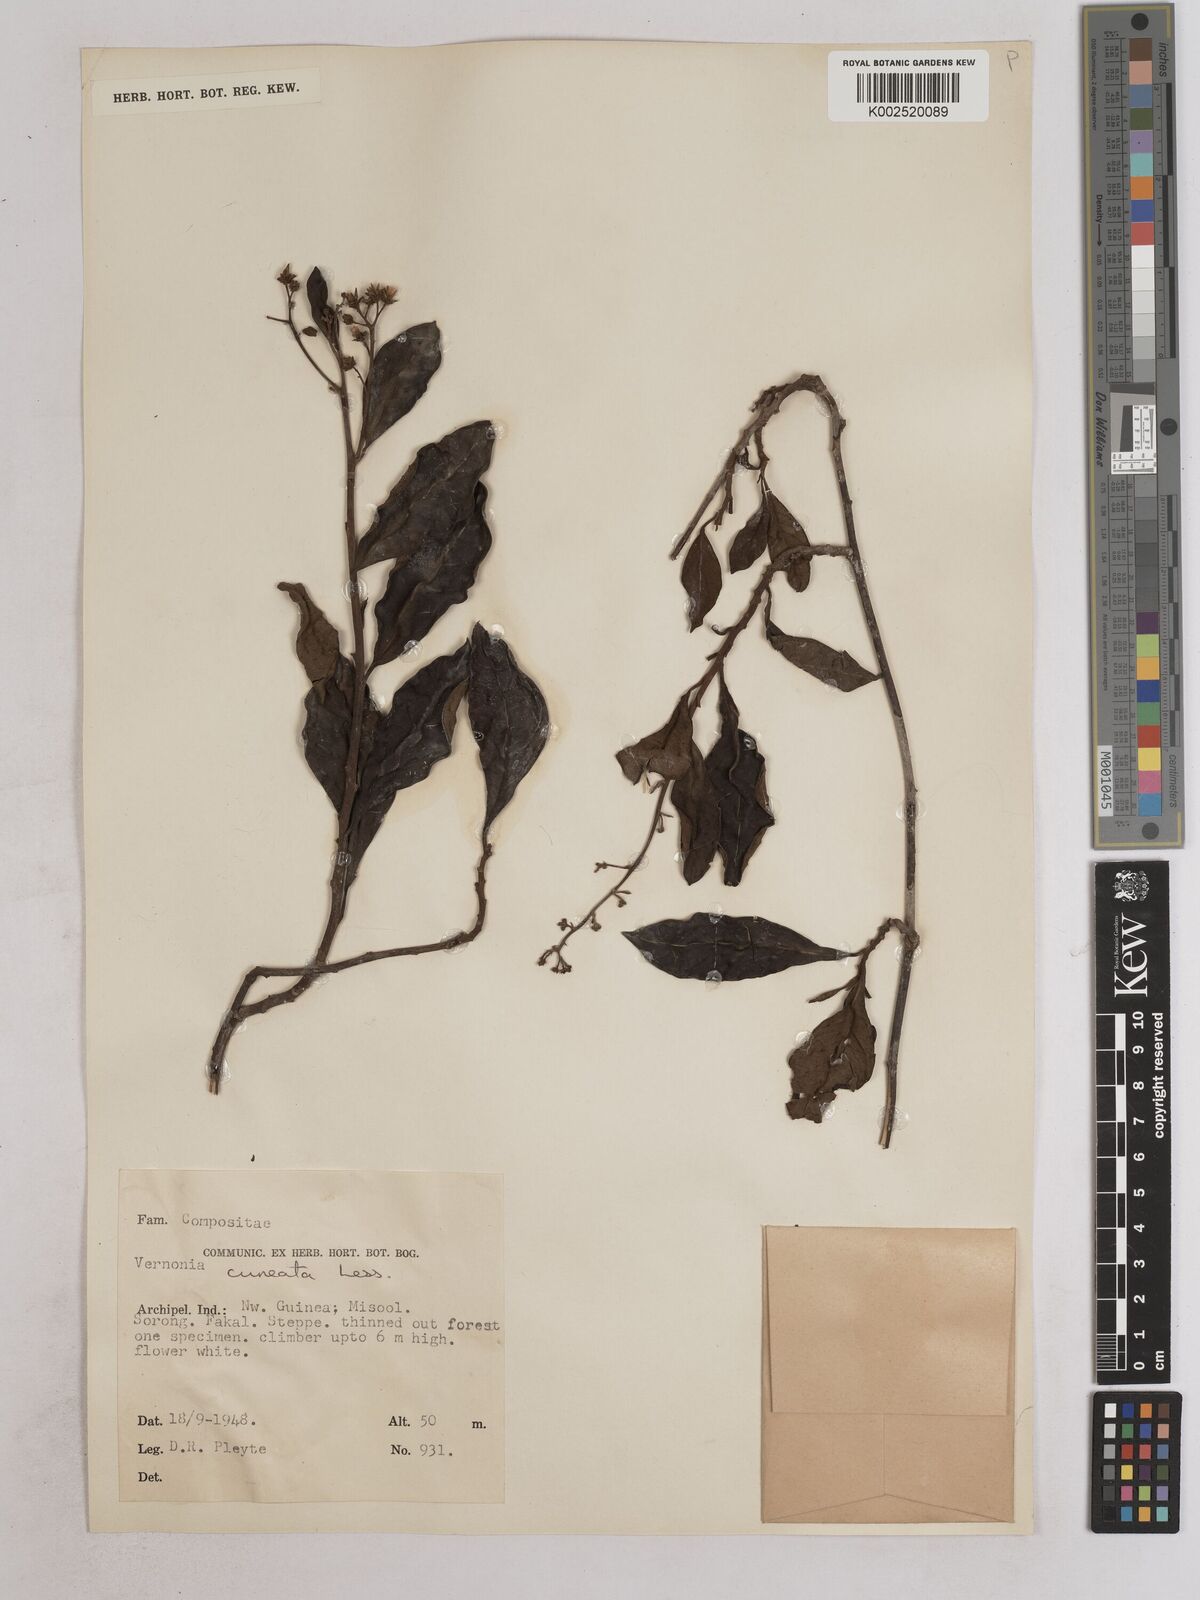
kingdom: Plantae
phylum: Tracheophyta
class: Magnoliopsida
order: Asterales
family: Asteraceae
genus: Decaneuropsis
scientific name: Decaneuropsis obovata
